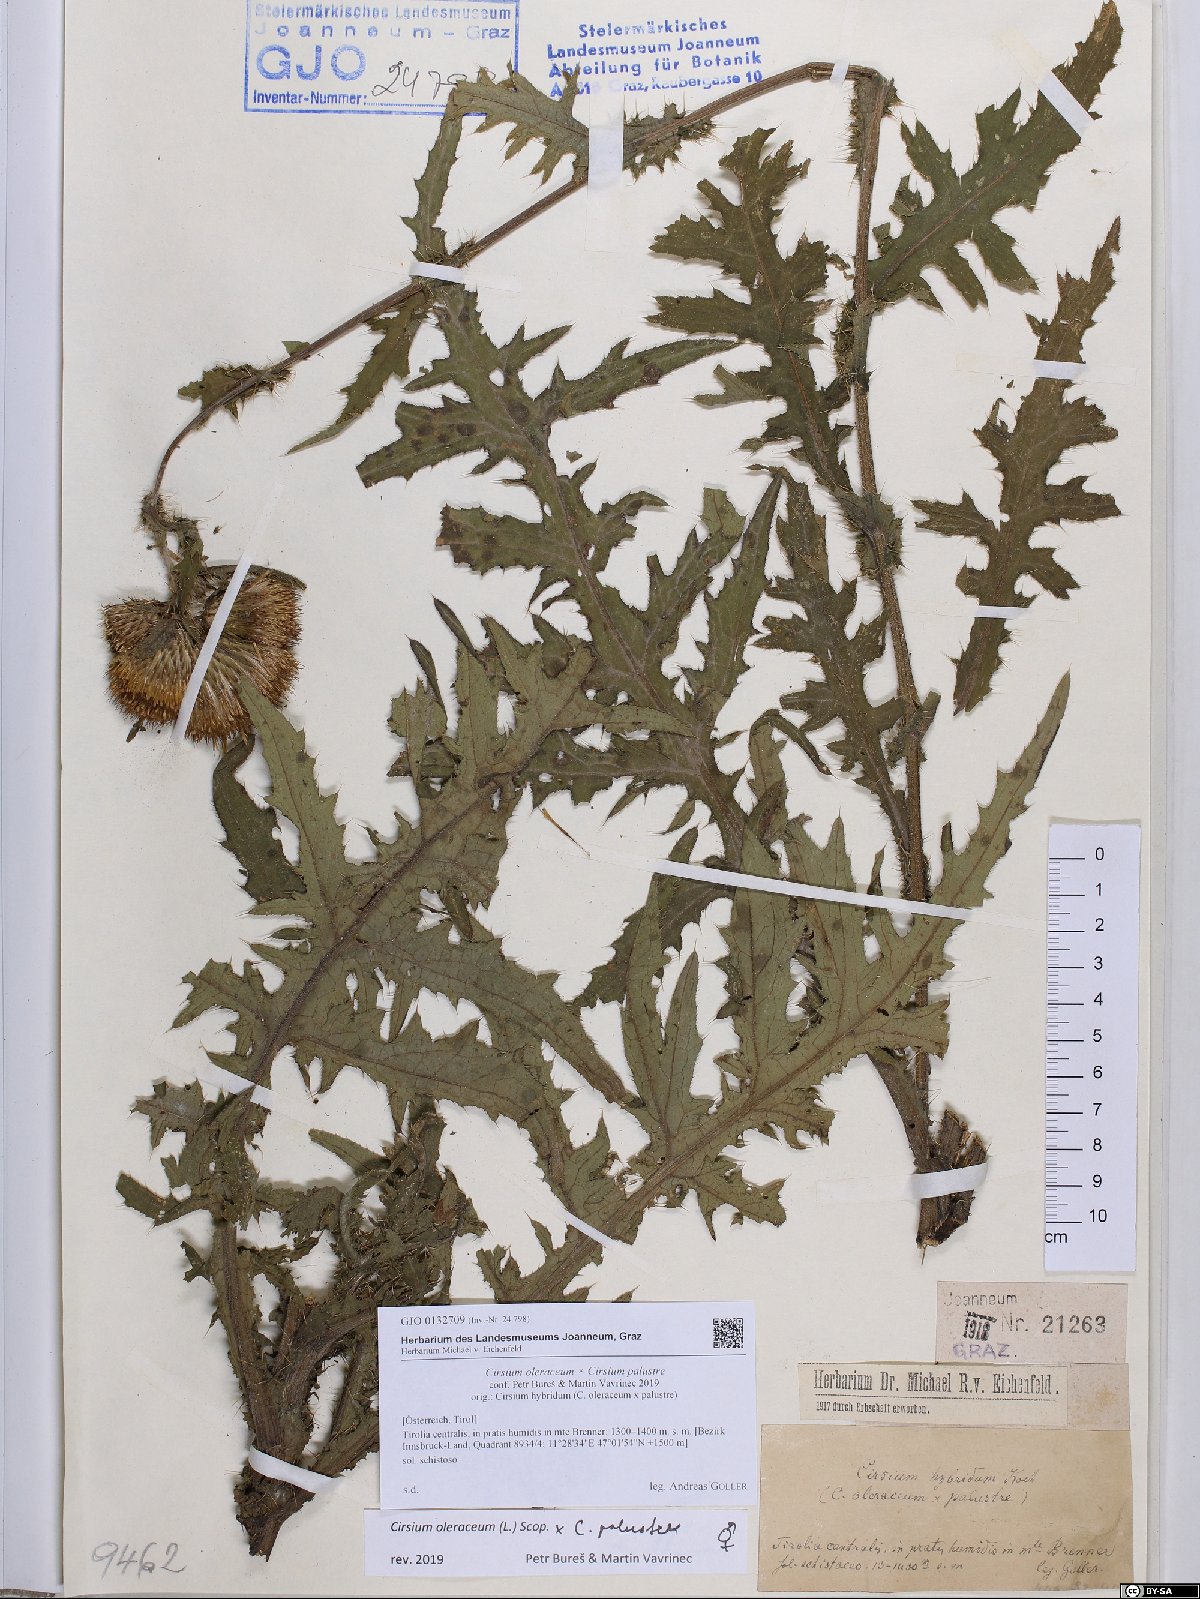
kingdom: Plantae
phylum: Tracheophyta
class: Magnoliopsida
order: Asterales
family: Asteraceae
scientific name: Asteraceae
